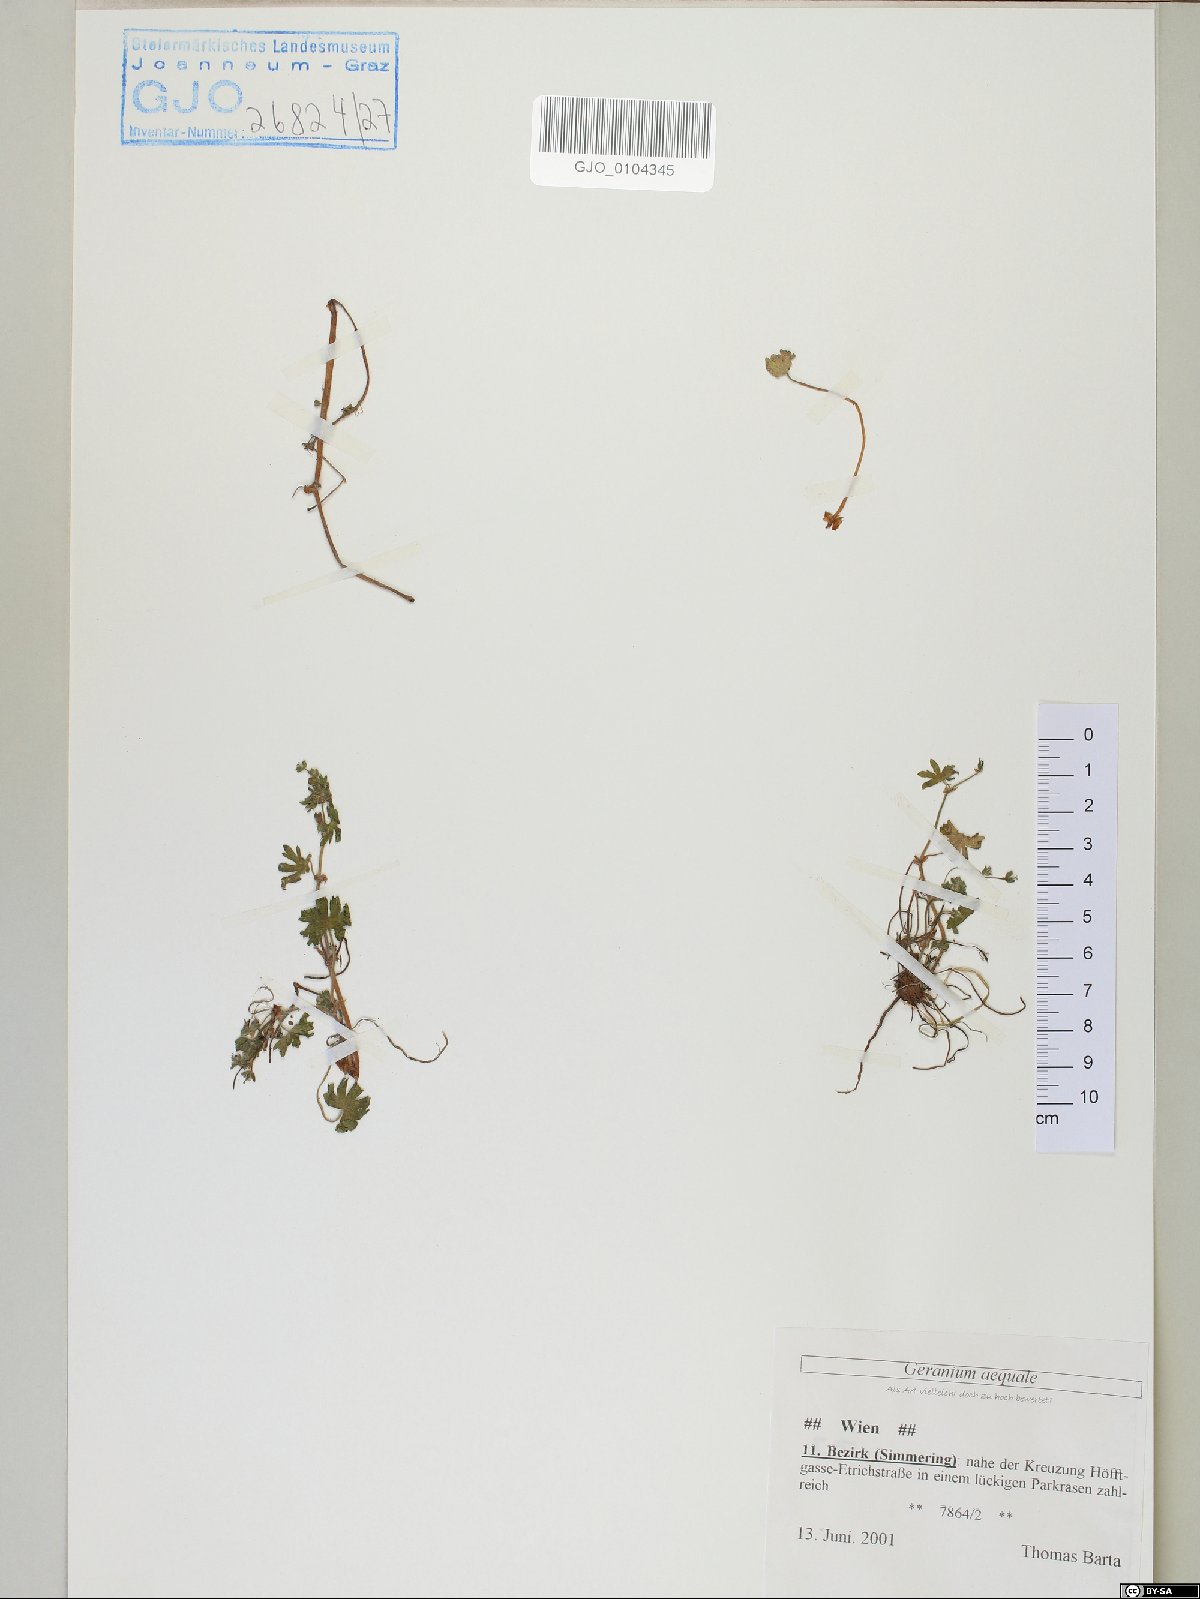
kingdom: Plantae
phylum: Tracheophyta
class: Magnoliopsida
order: Geraniales
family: Geraniaceae
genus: Geranium
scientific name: Geranium aequale
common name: Geranium
